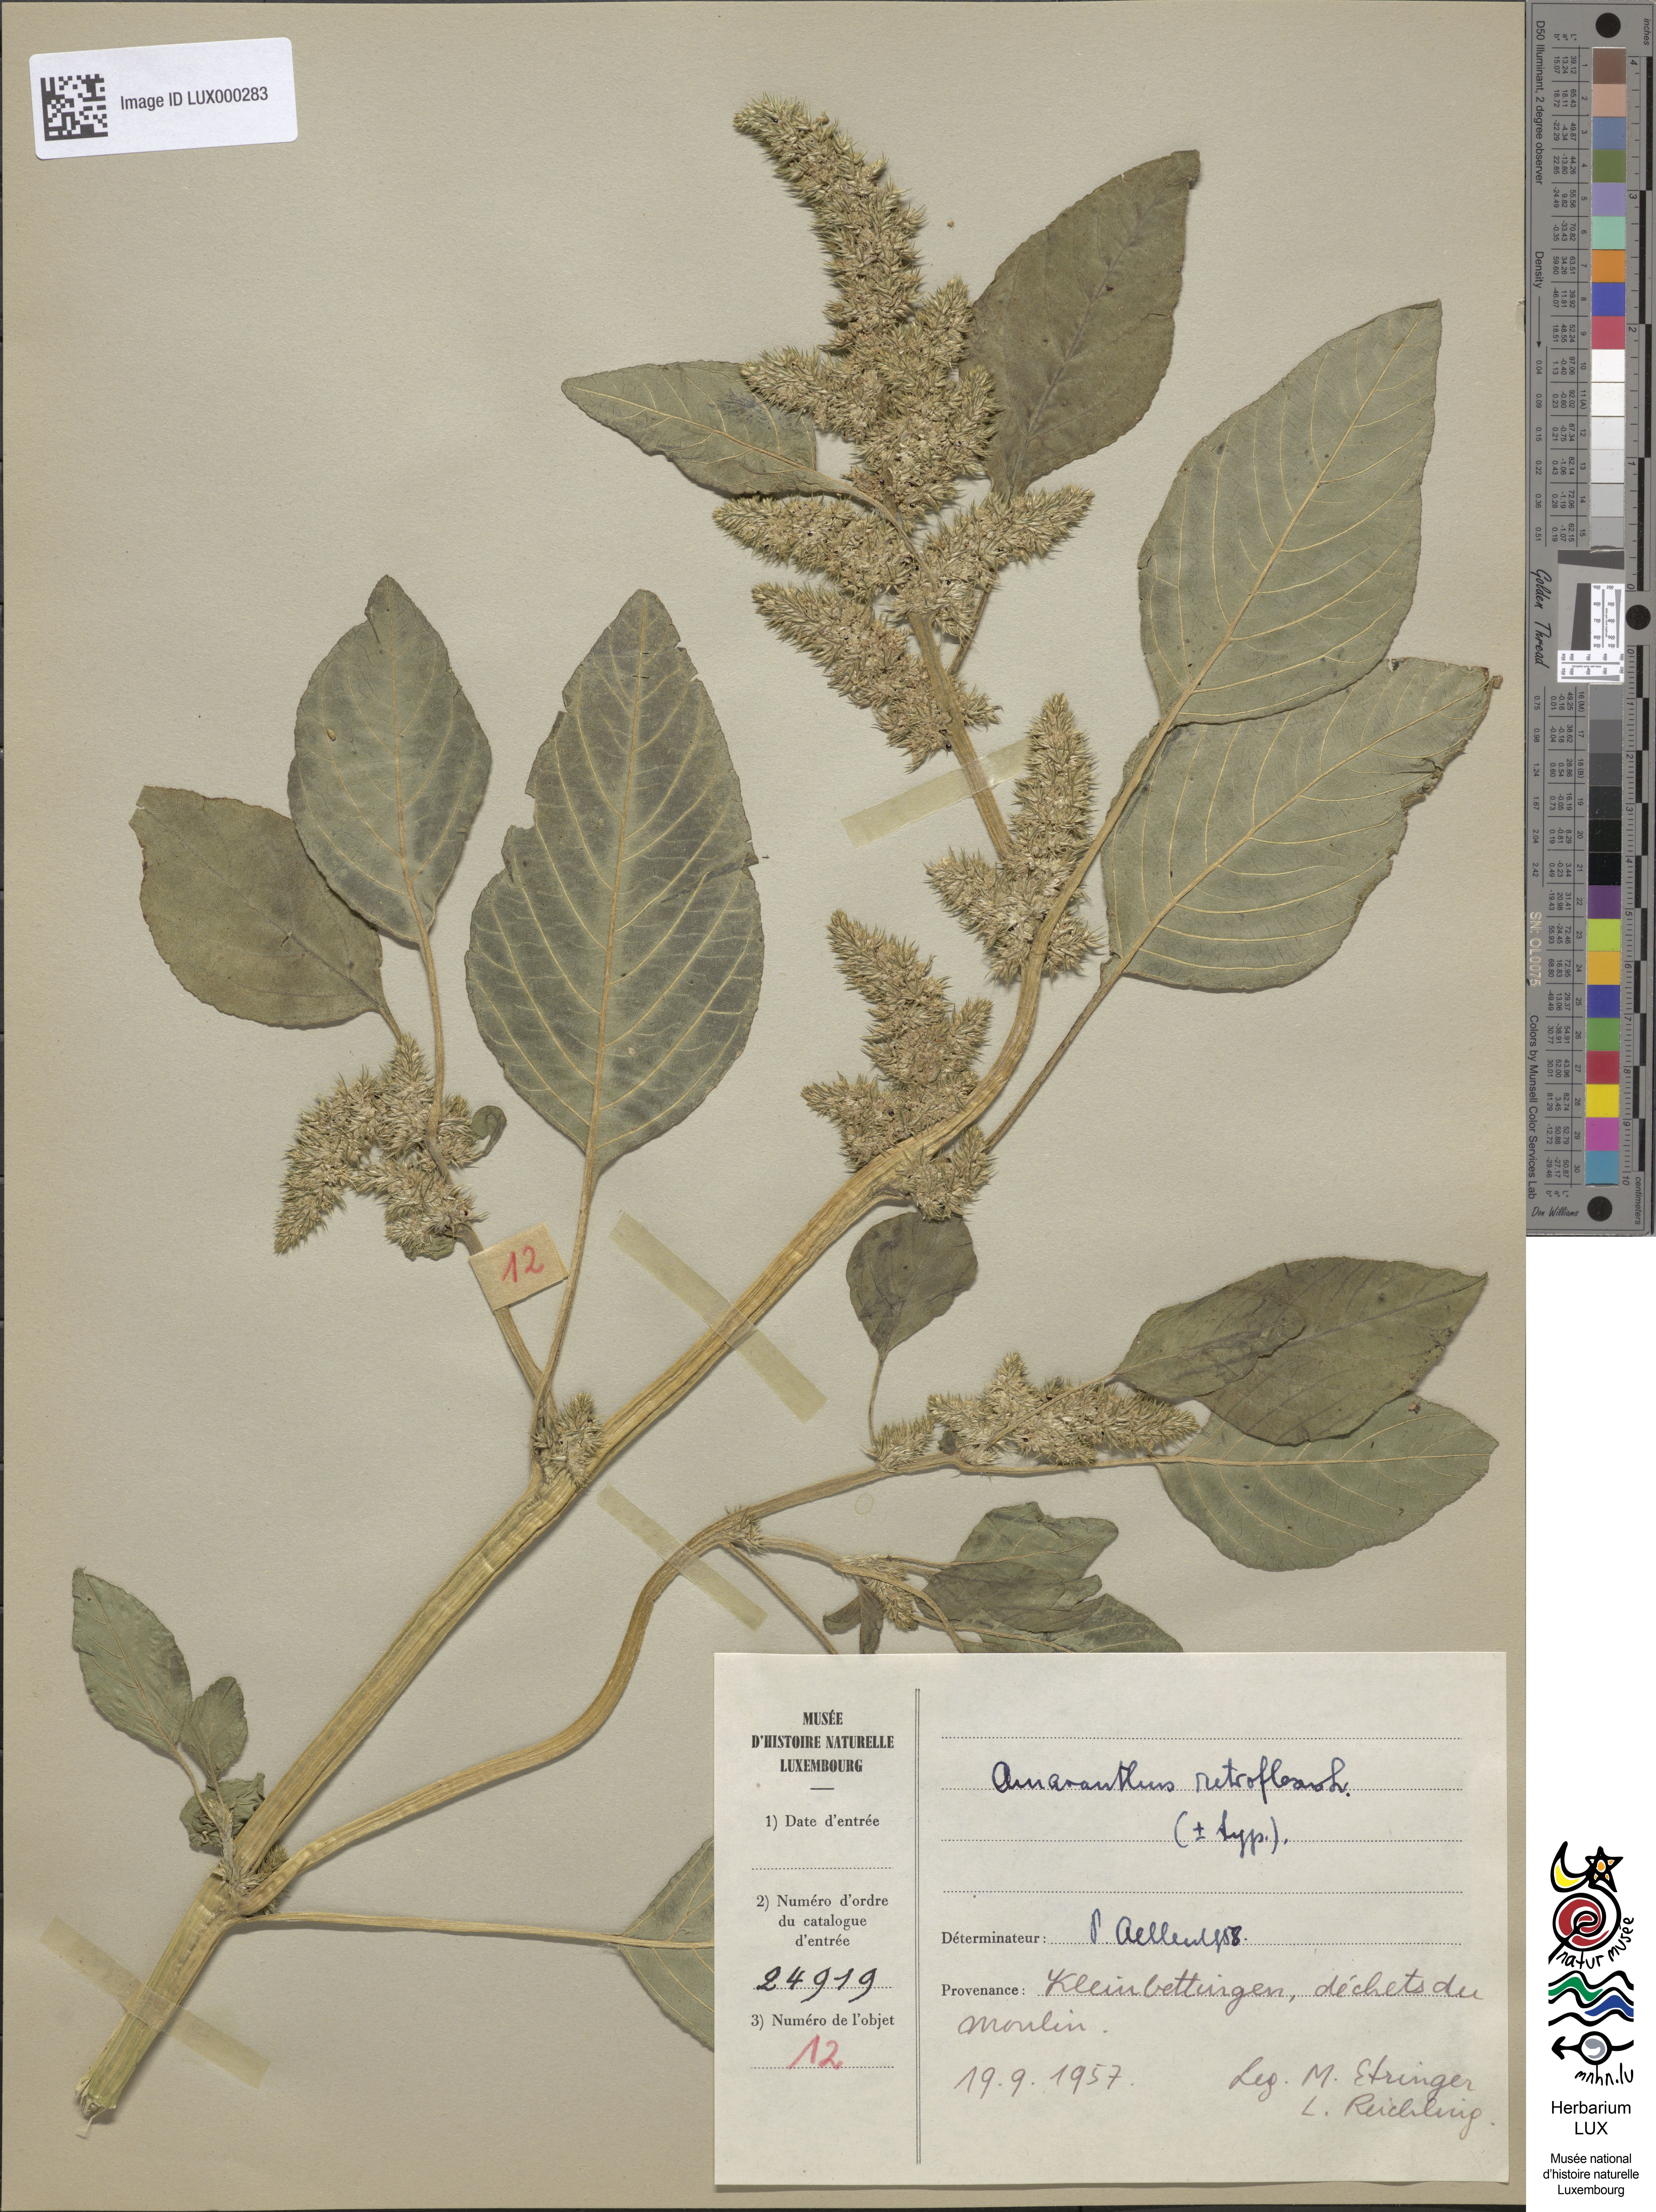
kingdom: Plantae
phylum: Tracheophyta
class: Magnoliopsida
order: Caryophyllales
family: Amaranthaceae
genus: Amaranthus
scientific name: Amaranthus retroflexus
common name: Redroot amaranth
